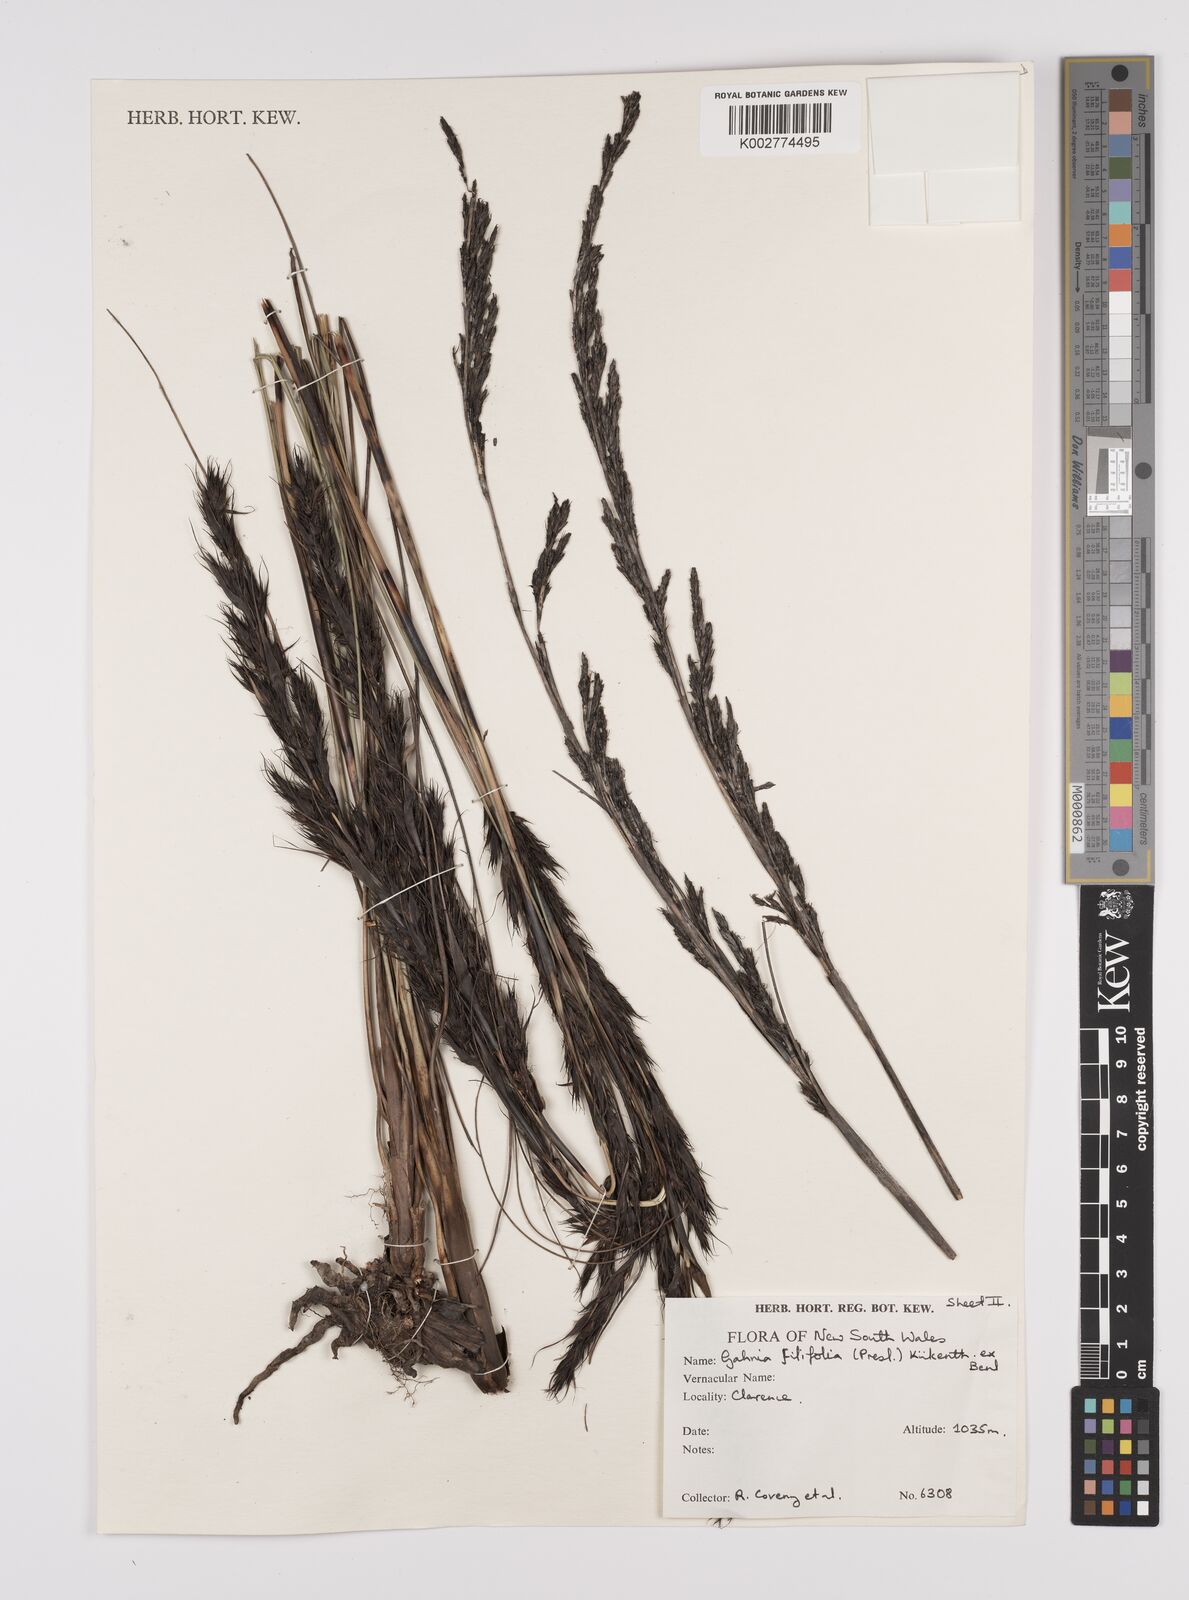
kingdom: Plantae
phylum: Tracheophyta
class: Liliopsida
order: Poales
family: Cyperaceae
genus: Gahnia
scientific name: Gahnia filifolia
